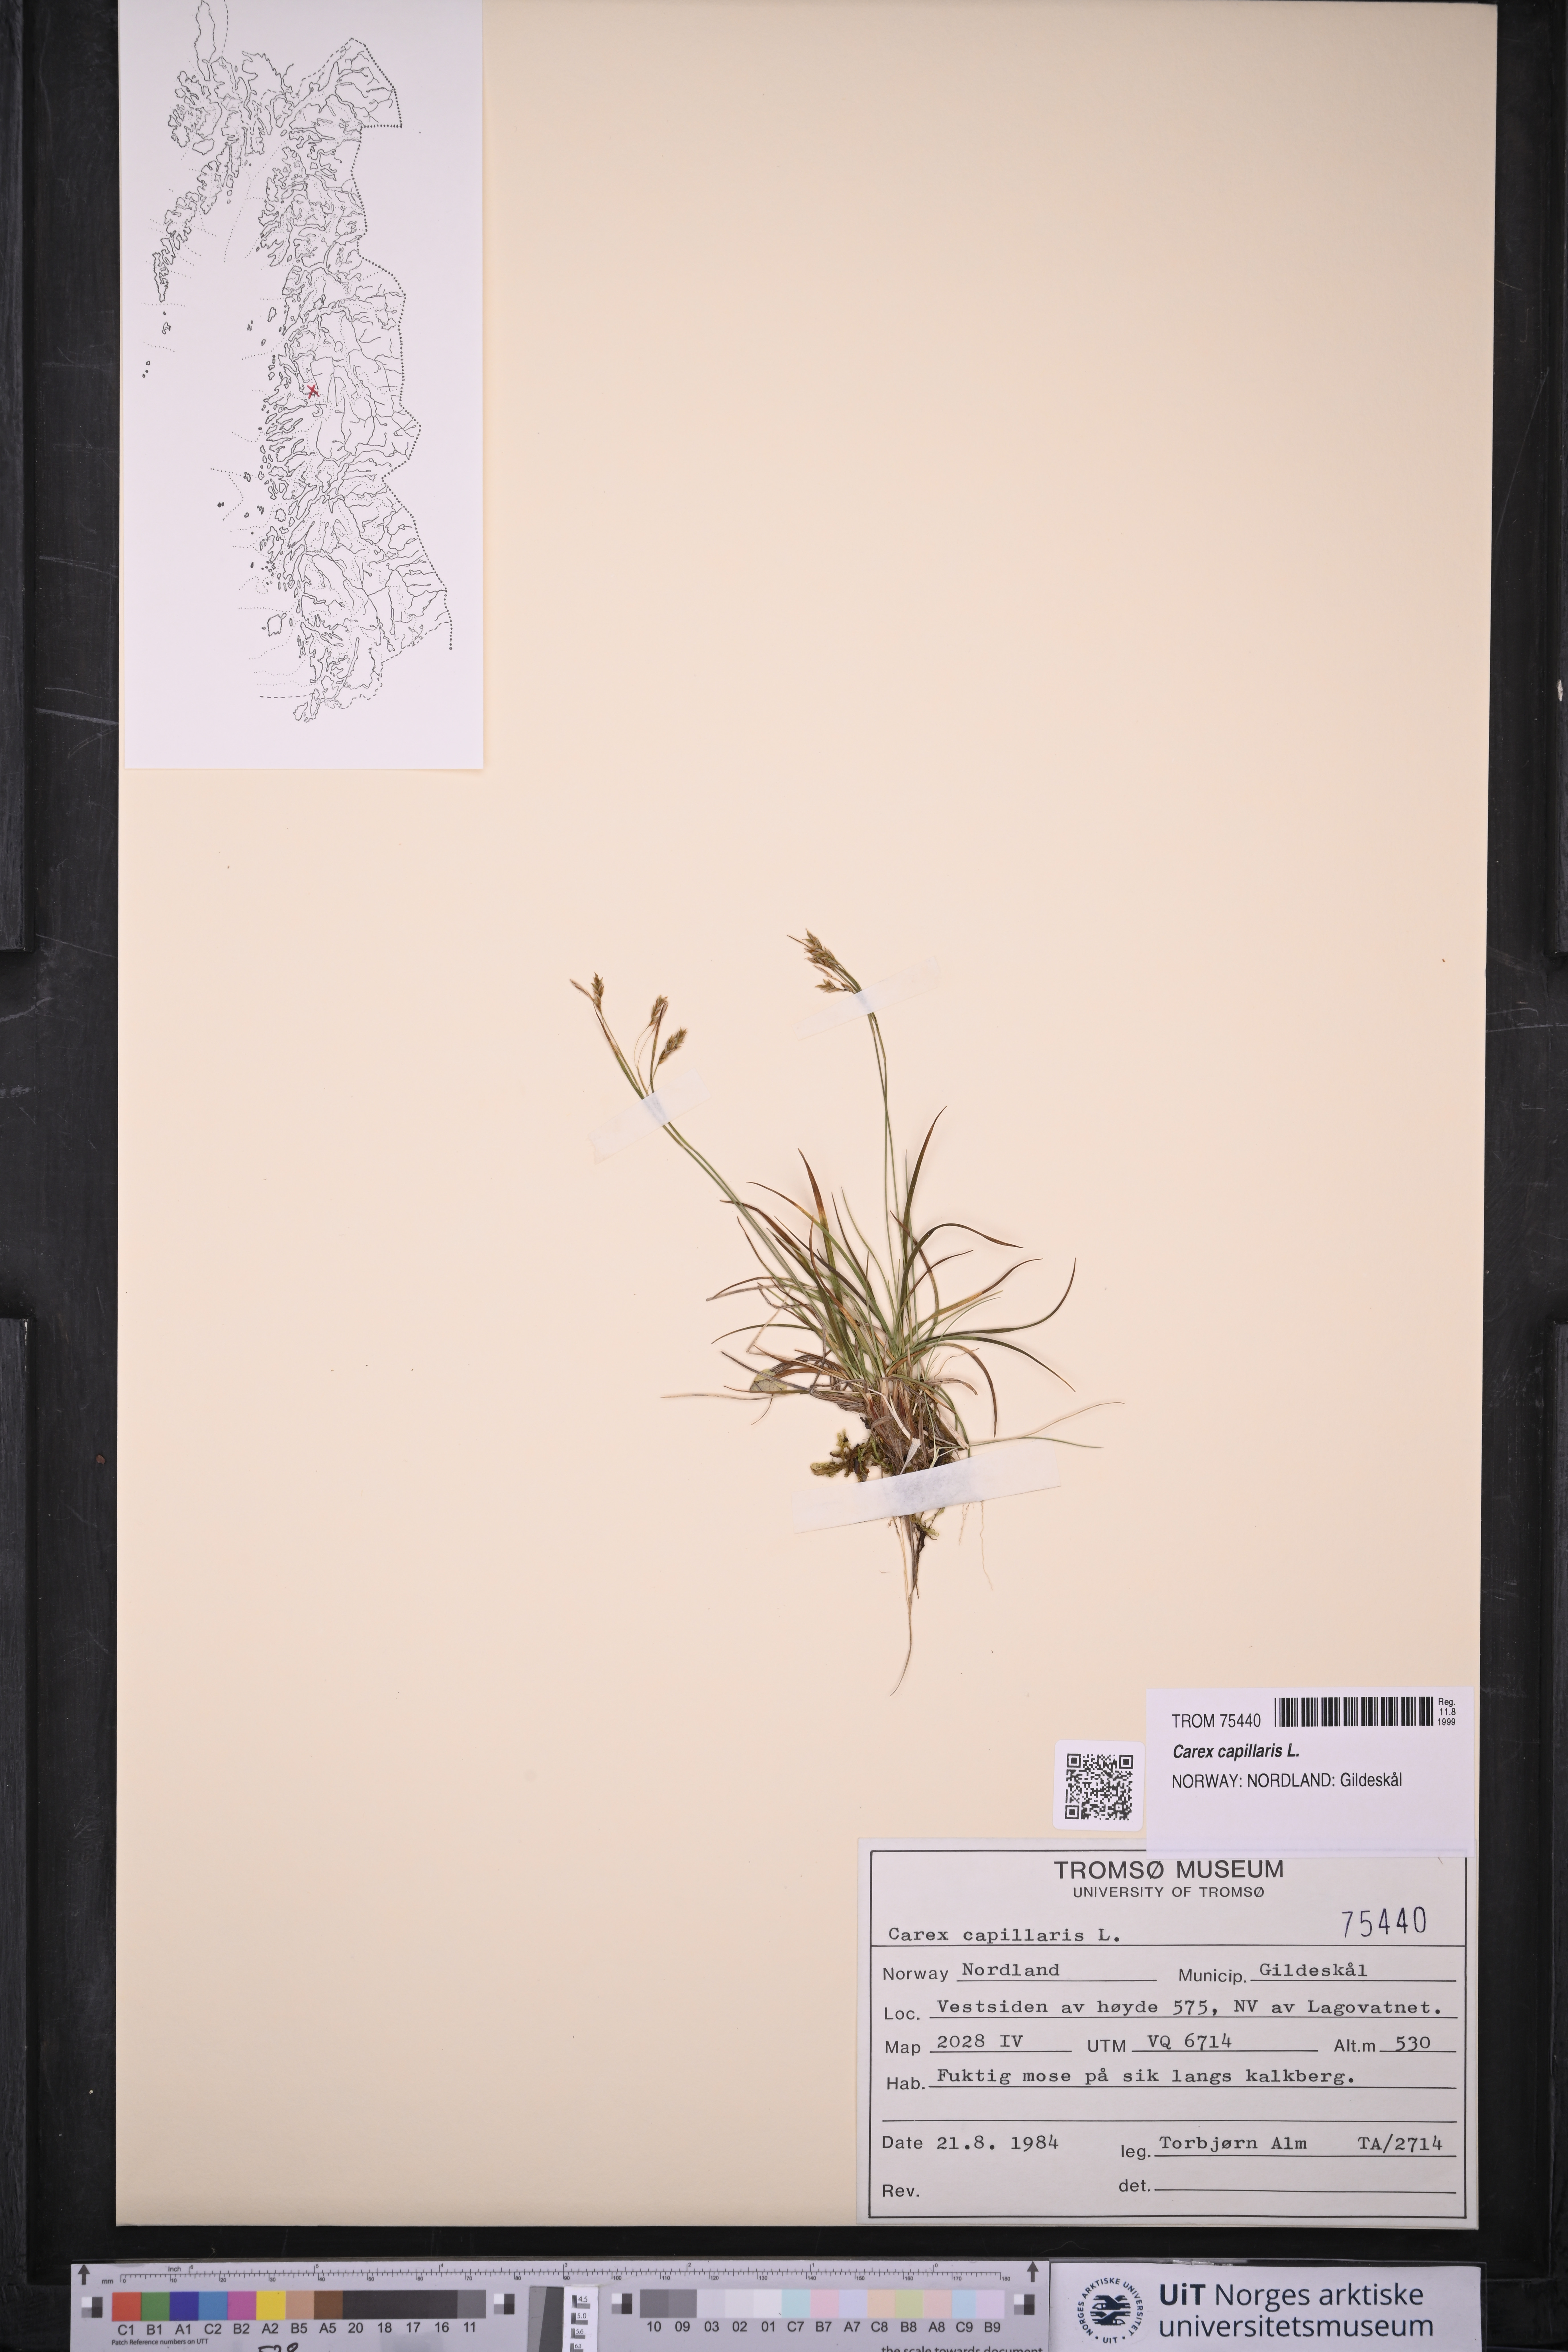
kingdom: Plantae
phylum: Tracheophyta
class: Liliopsida
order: Poales
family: Cyperaceae
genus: Carex
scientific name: Carex capillaris
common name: Hair sedge
